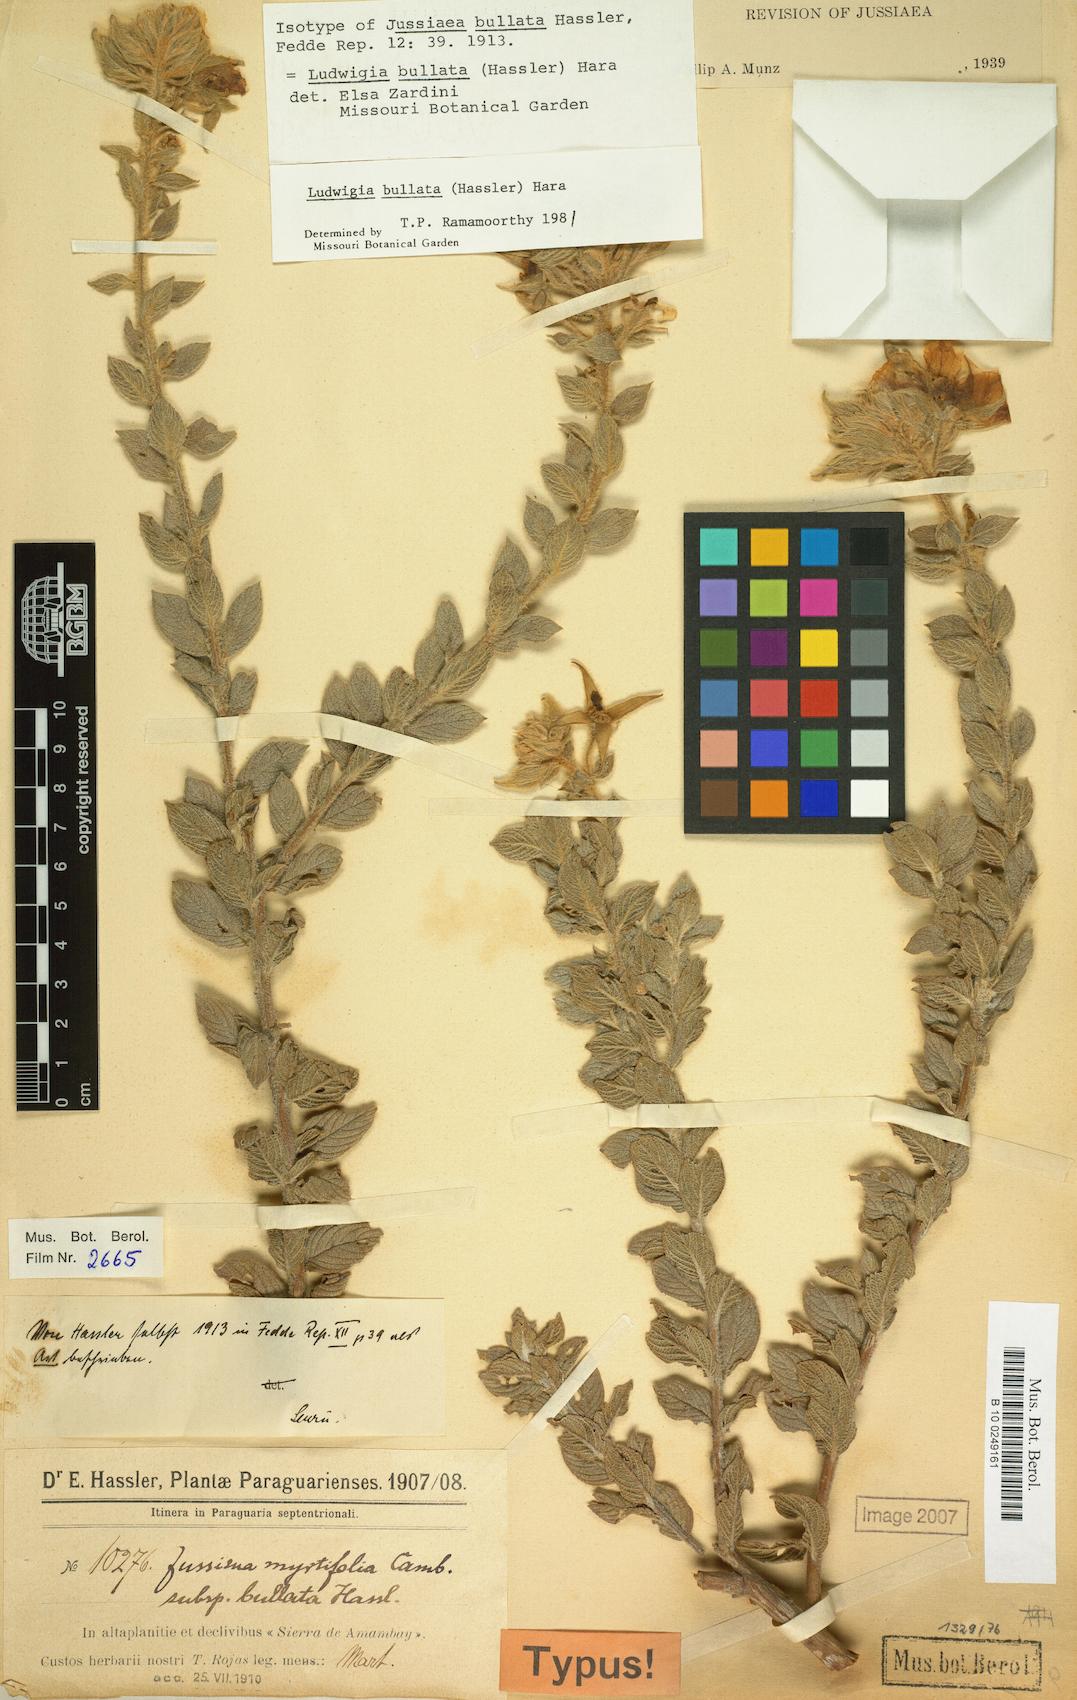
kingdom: Plantae
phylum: Tracheophyta
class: Magnoliopsida
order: Myrtales
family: Onagraceae
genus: Ludwigia
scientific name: Ludwigia bullata
